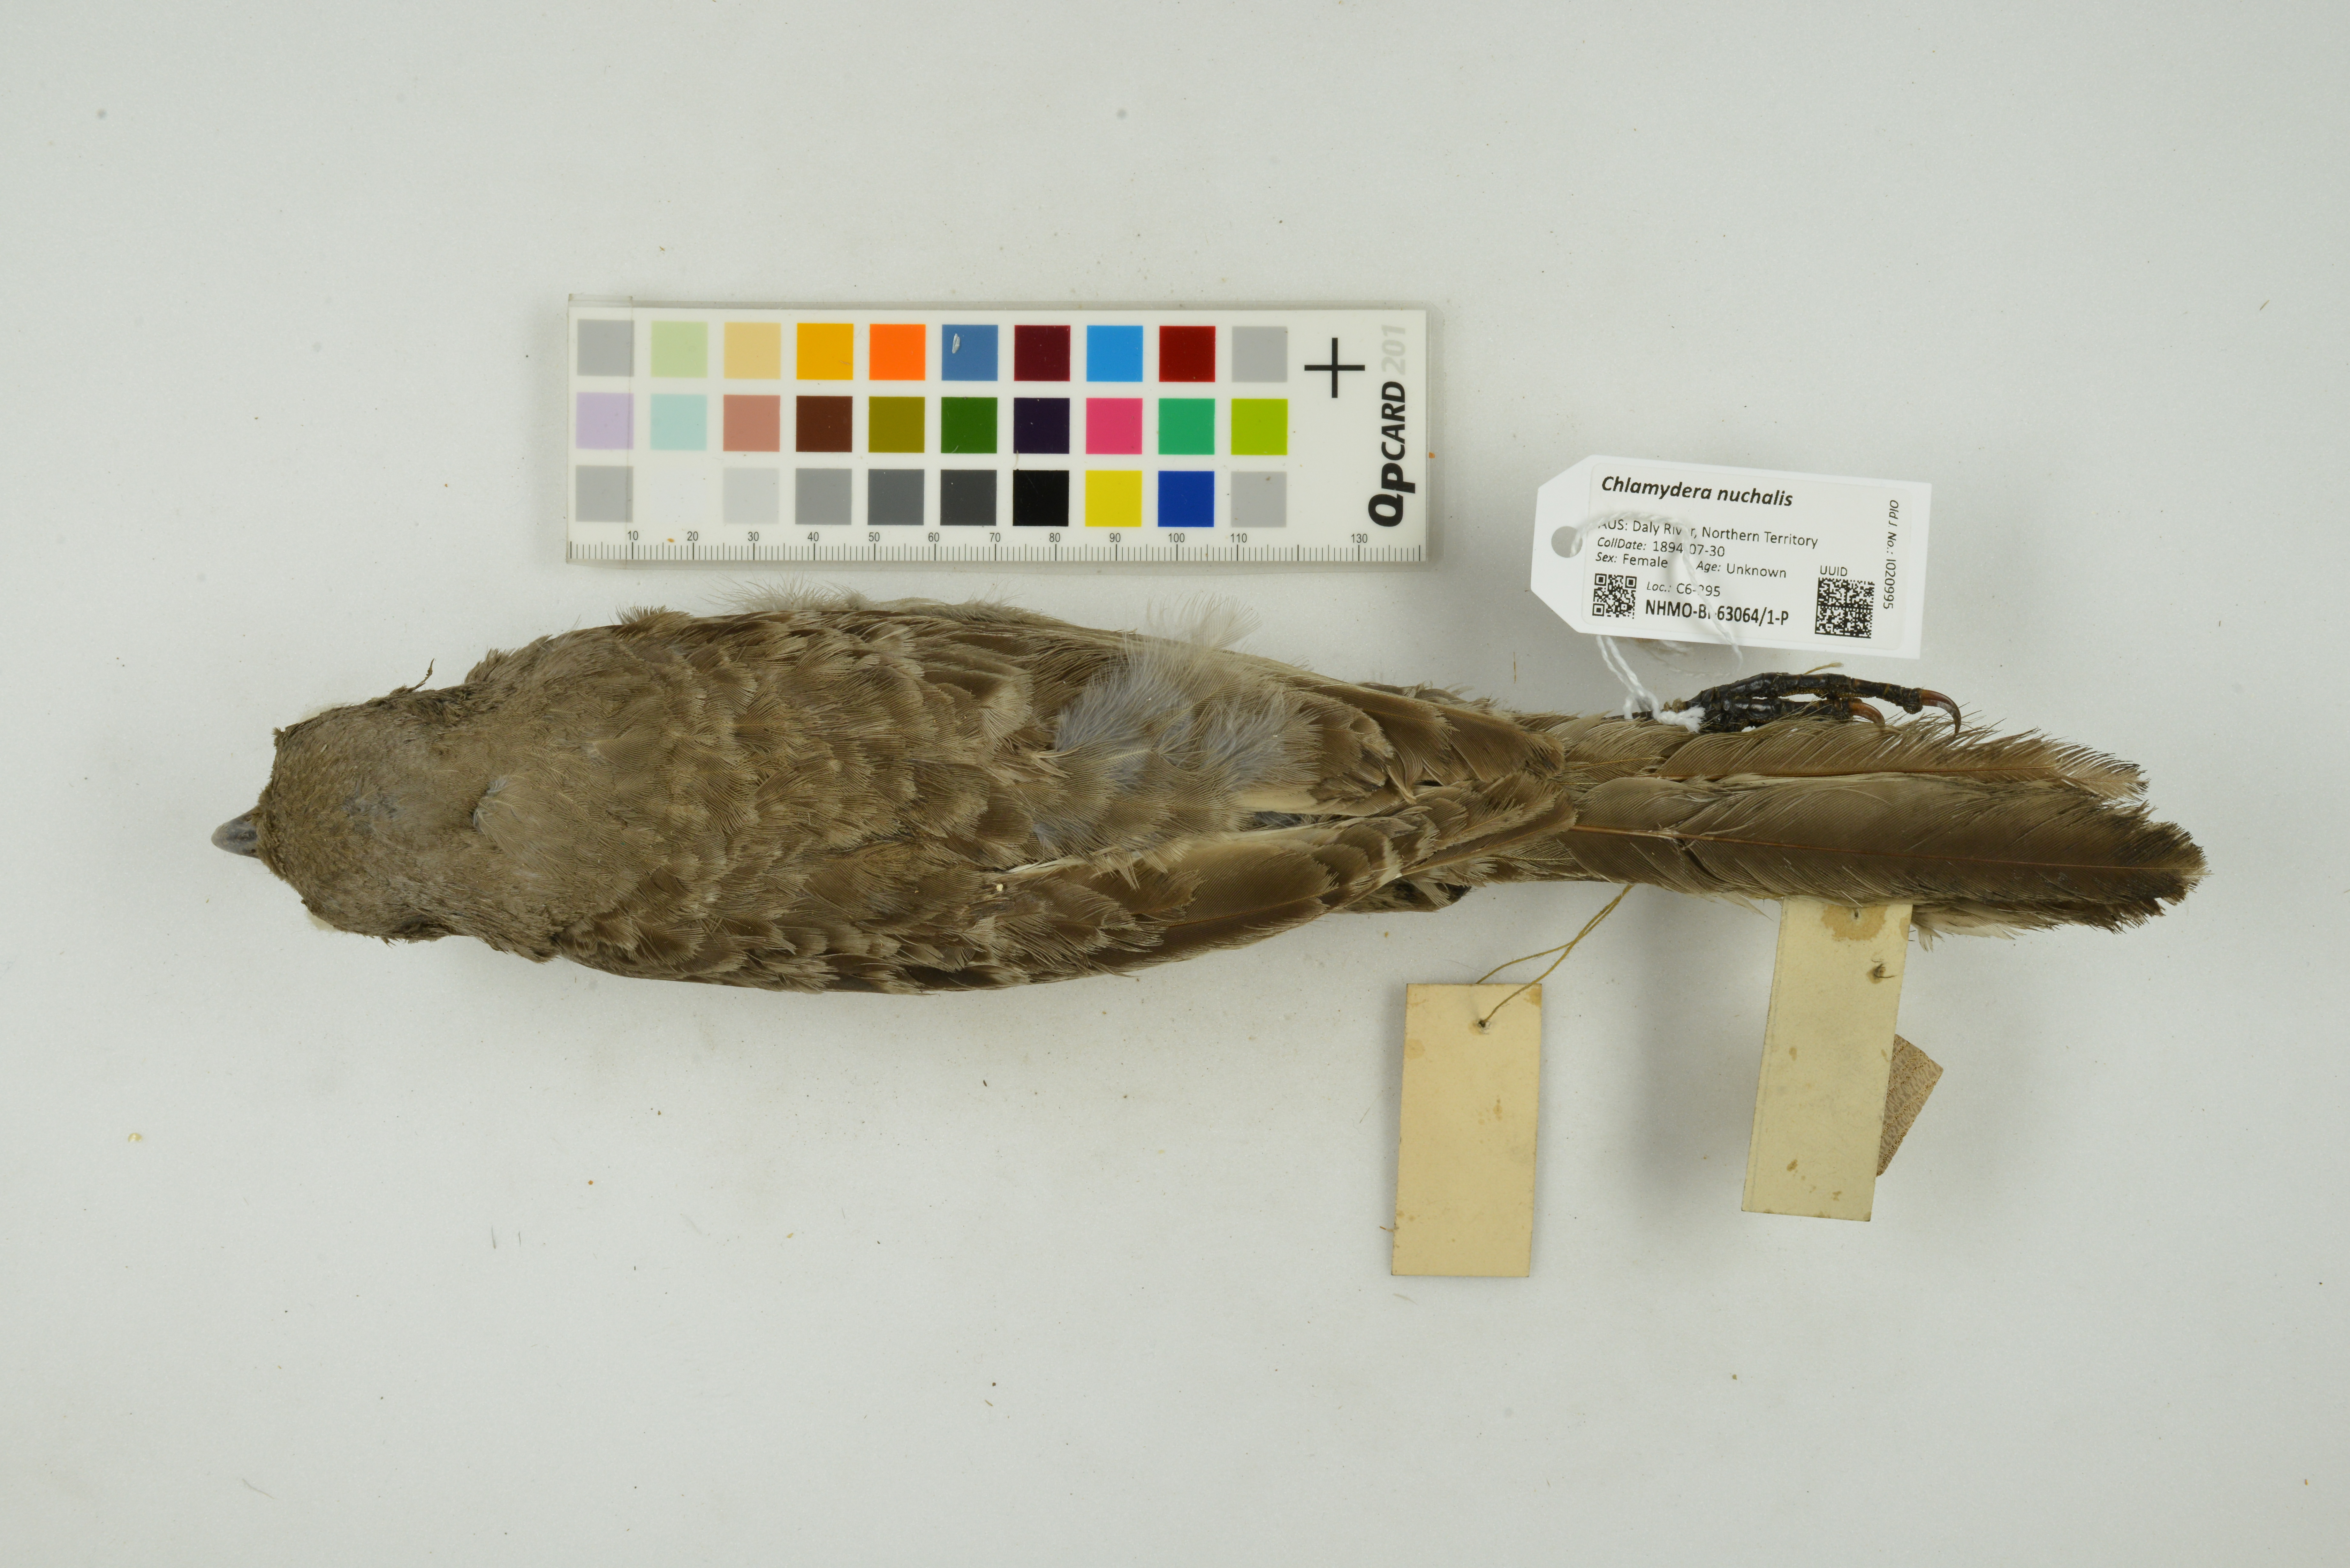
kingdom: Animalia
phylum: Chordata
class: Aves
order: Passeriformes
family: Ptilonorhynchidae
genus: Chlamydera
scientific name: Chlamydera nuchalis
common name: Great bowerbird
